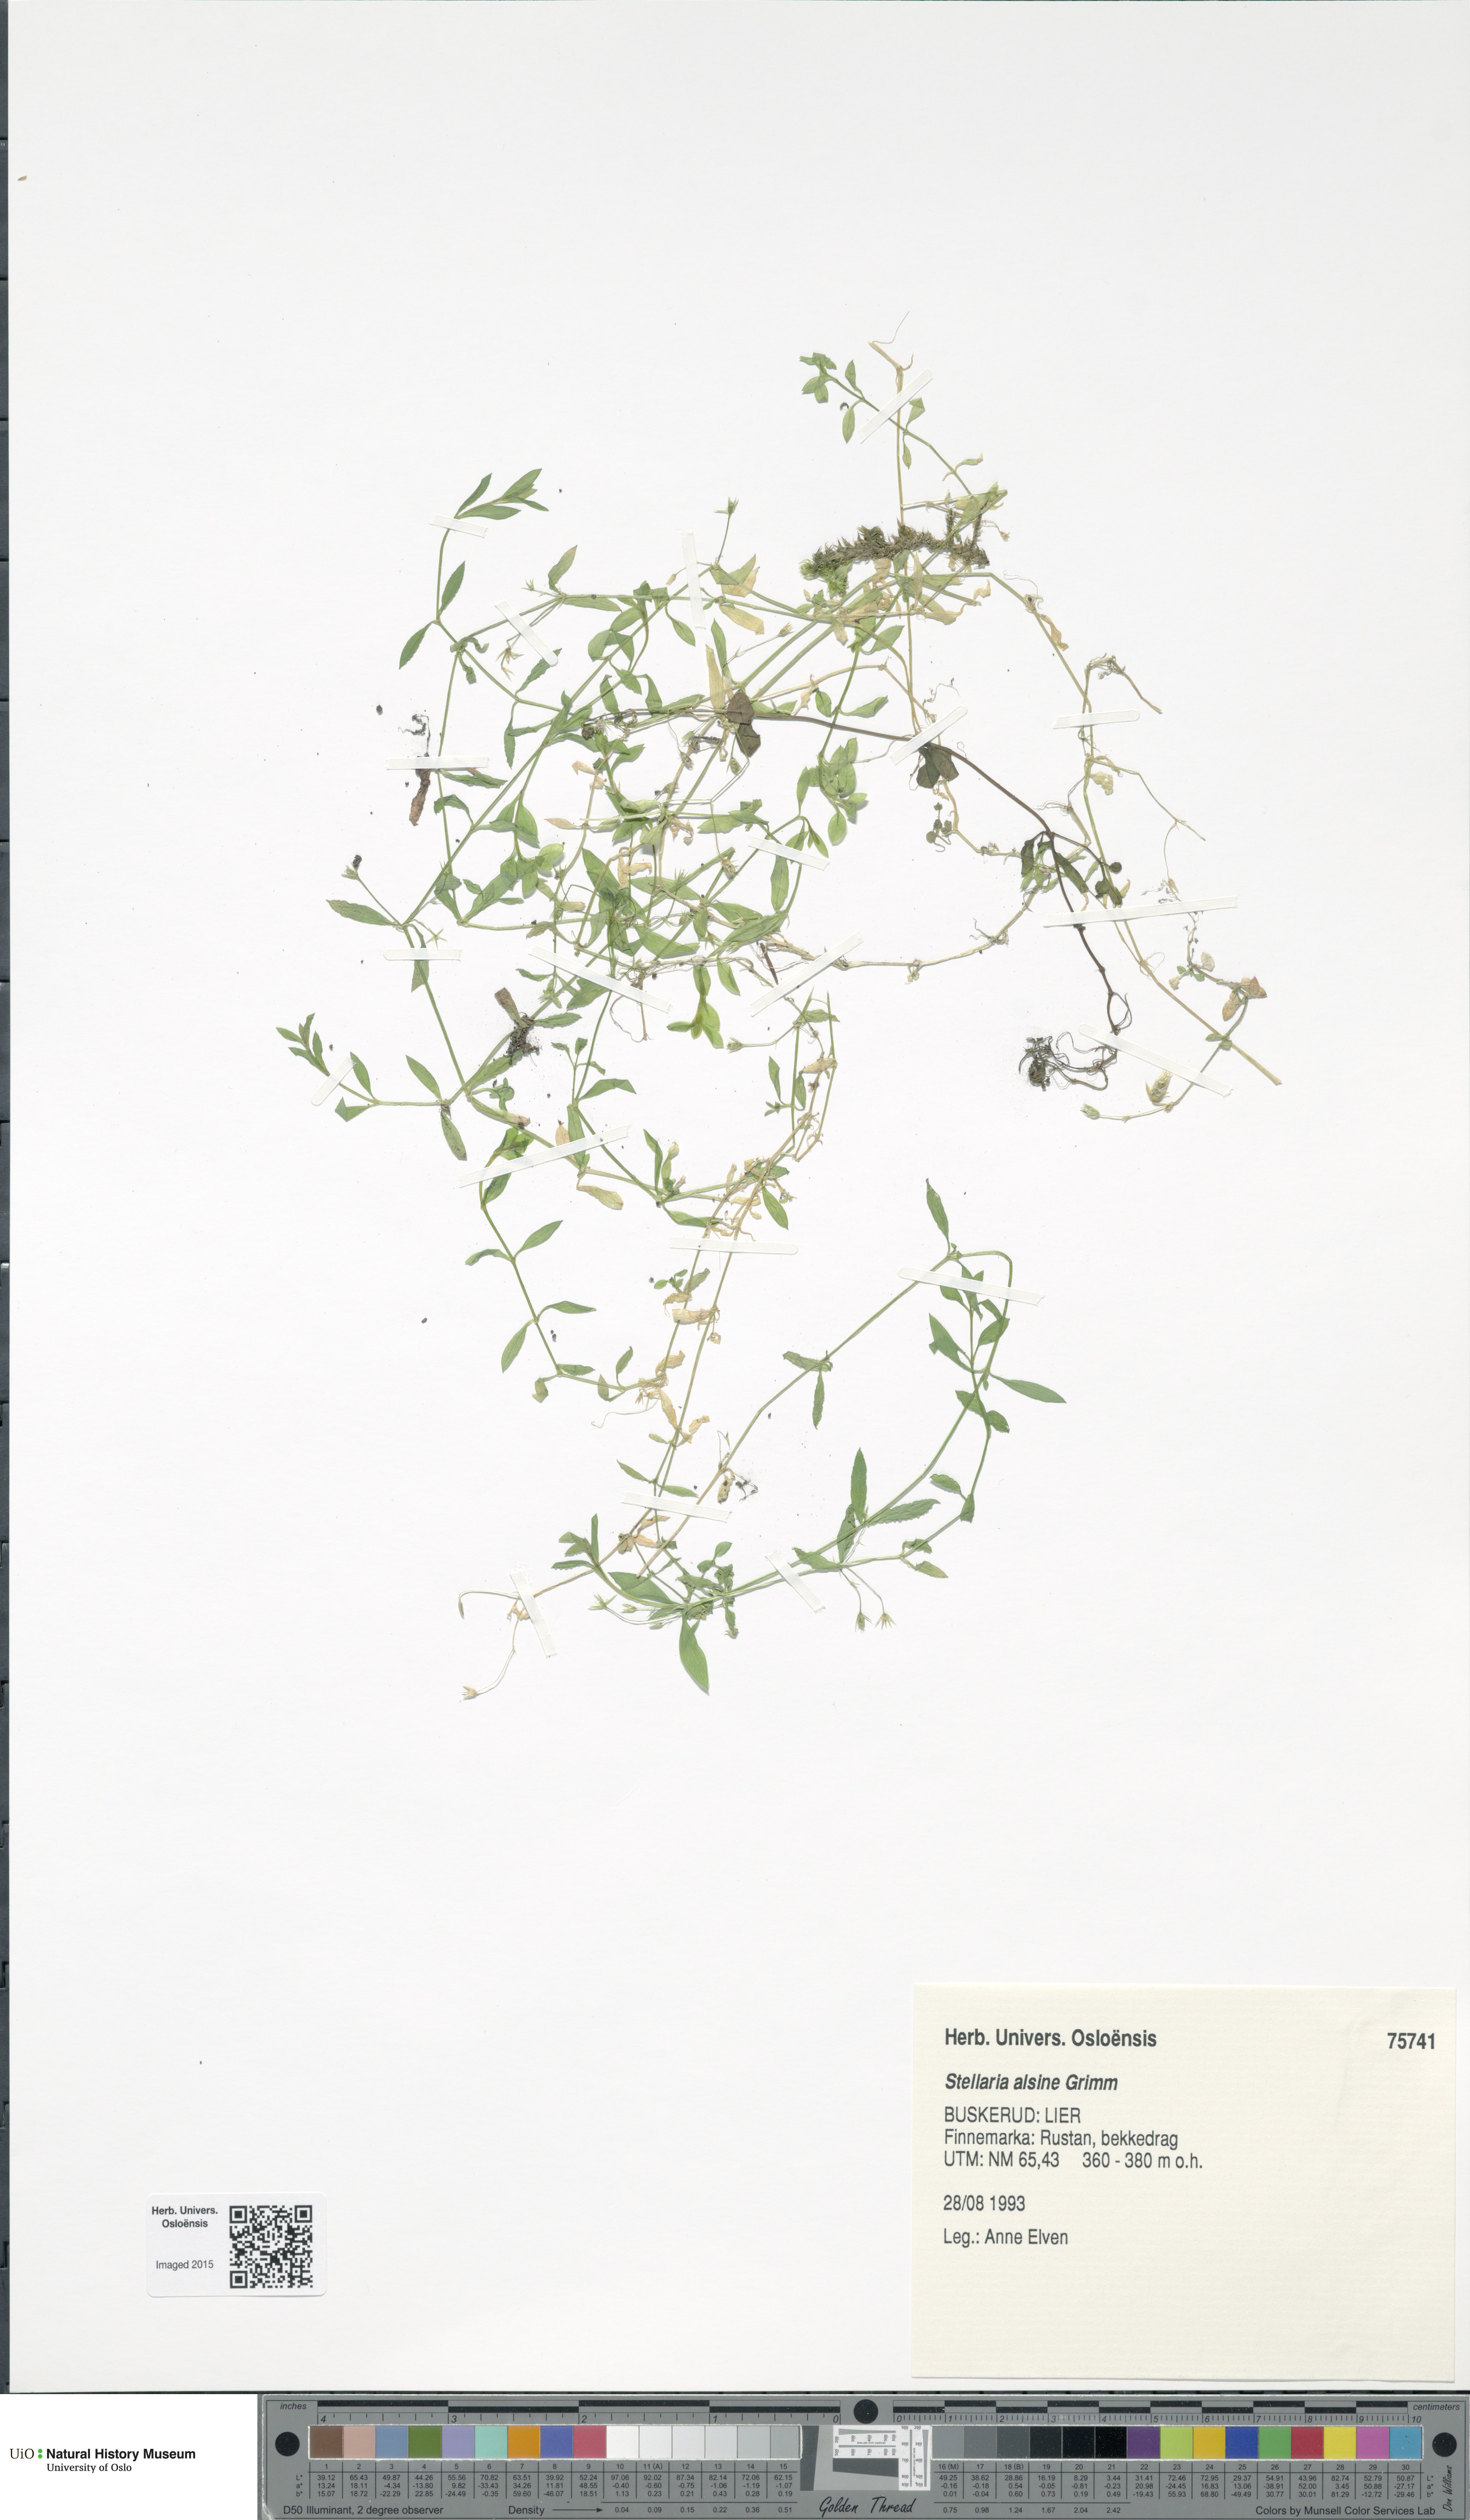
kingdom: Plantae
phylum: Tracheophyta
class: Magnoliopsida
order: Caryophyllales
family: Caryophyllaceae
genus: Stellaria
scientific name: Stellaria alsine
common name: Bog stitchwort
